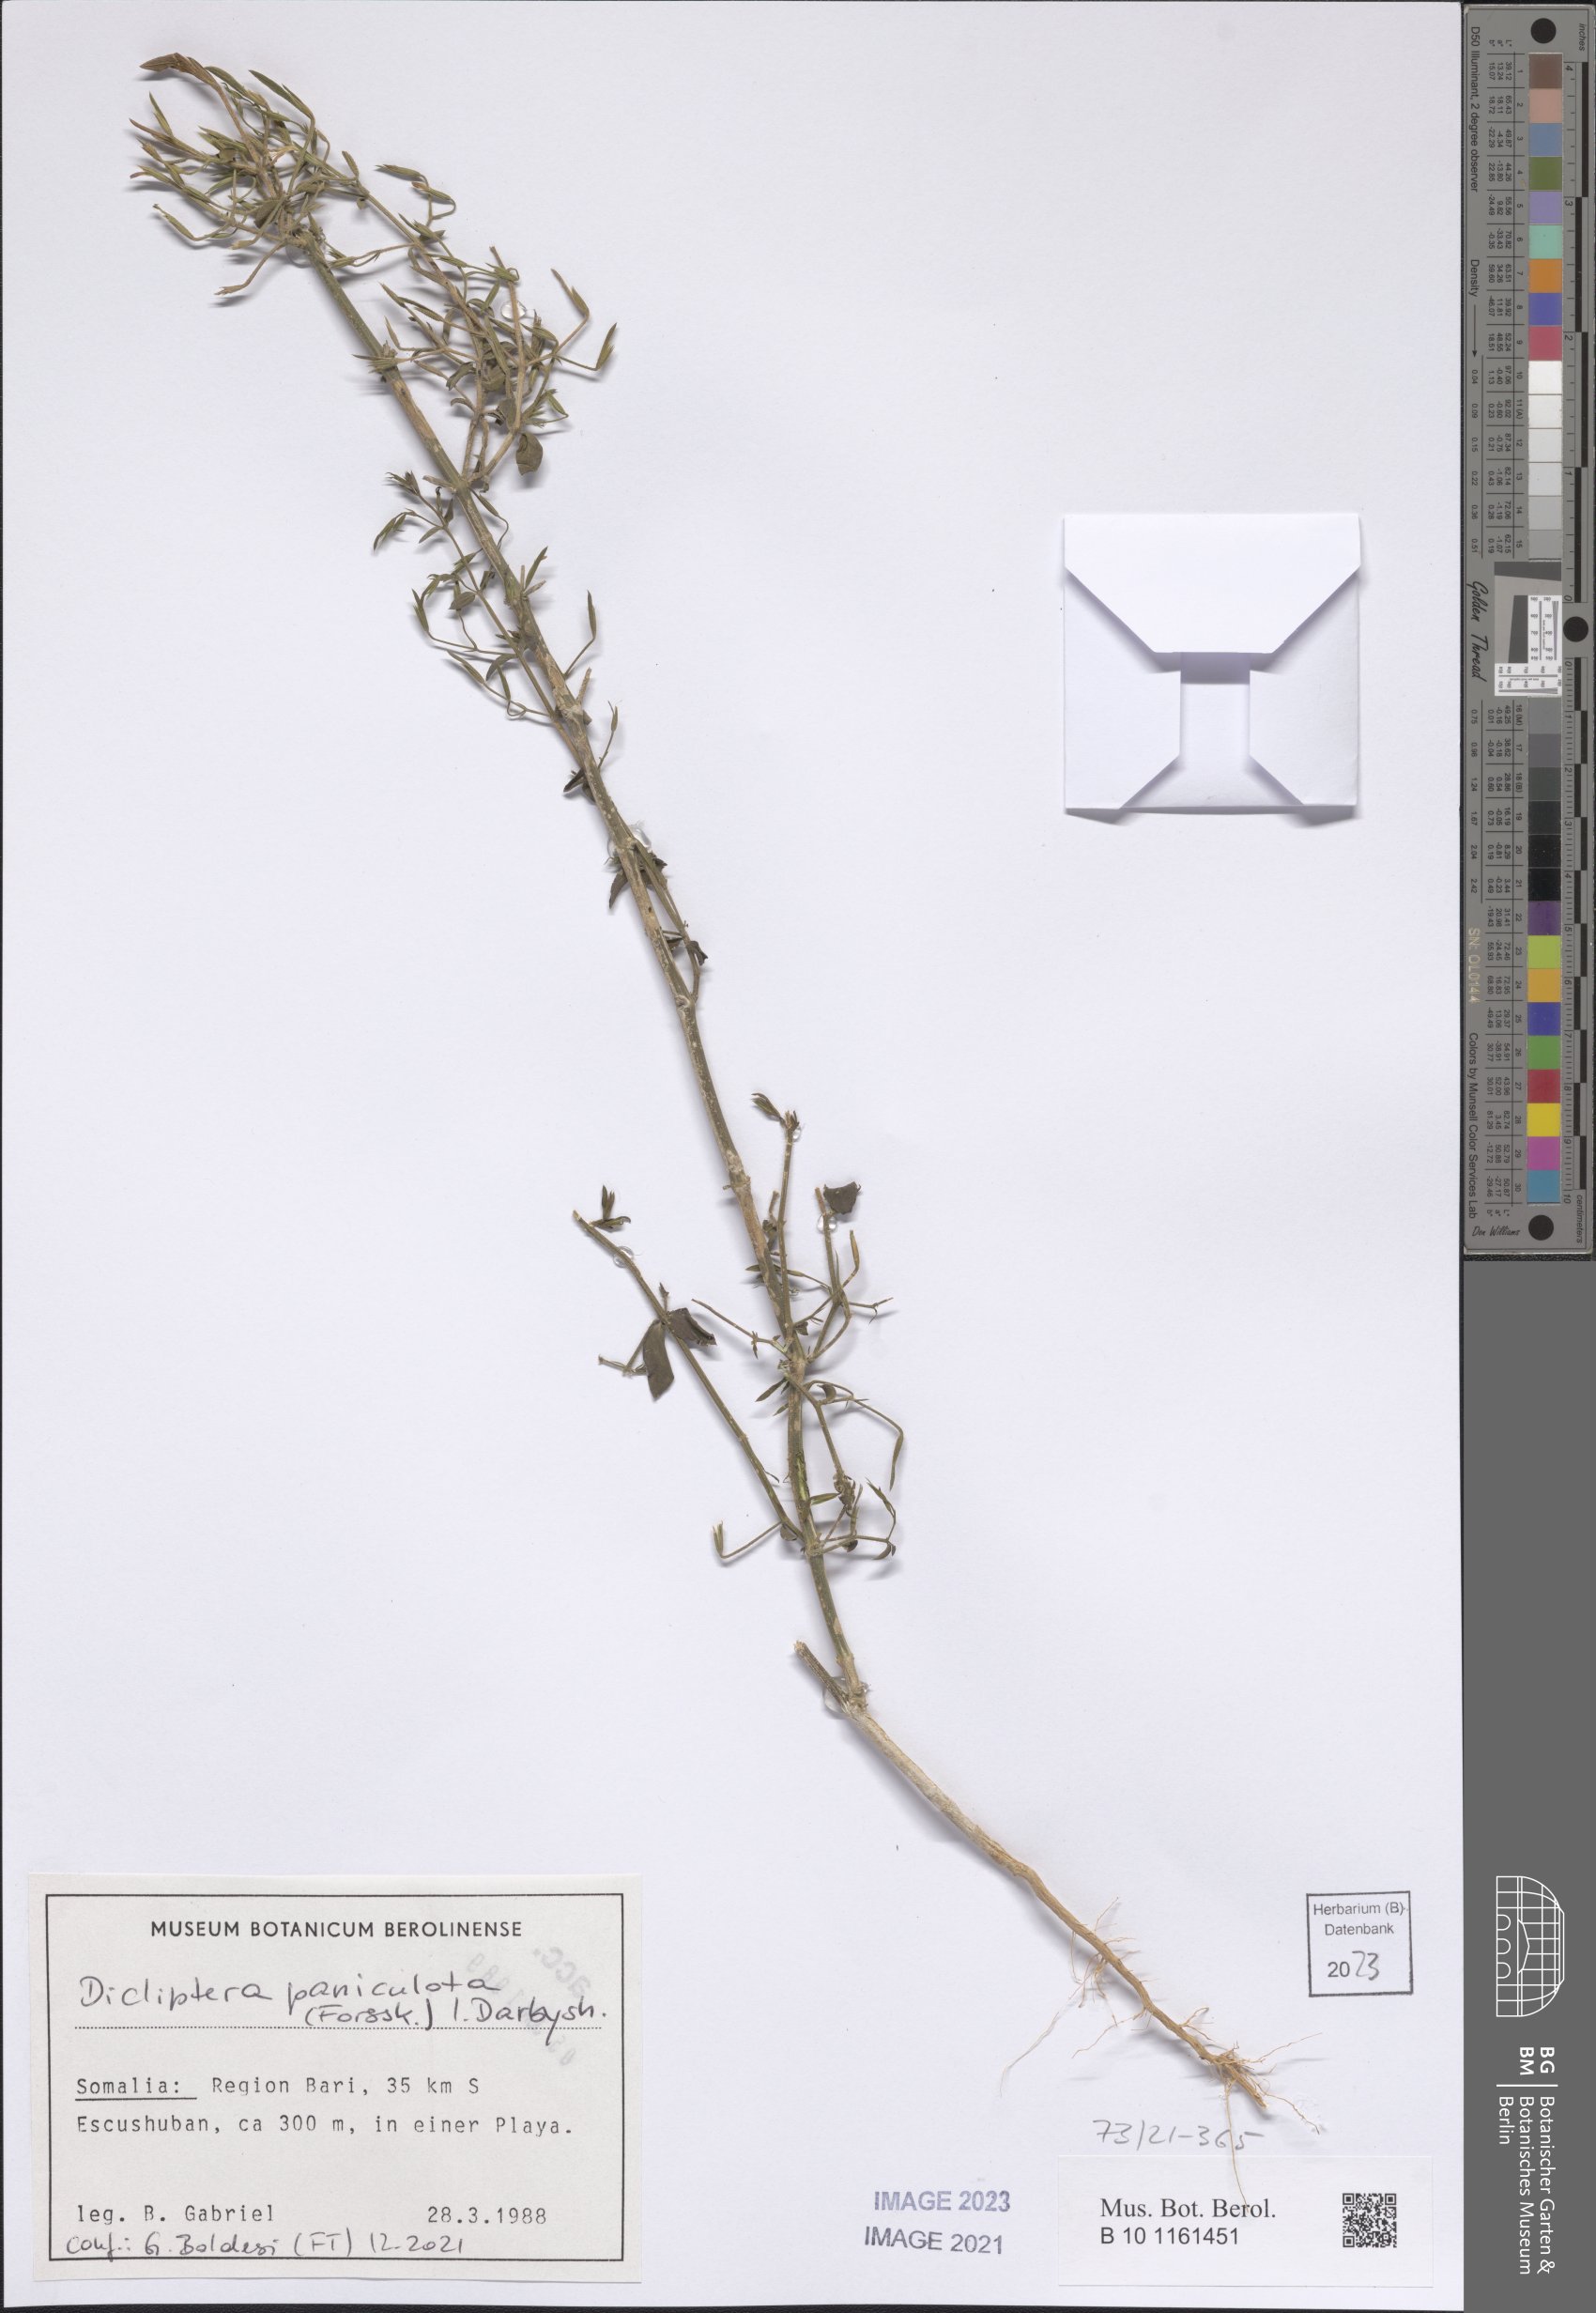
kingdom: Plantae
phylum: Tracheophyta
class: Magnoliopsida
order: Lamiales
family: Acanthaceae
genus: Dicliptera
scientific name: Dicliptera paniculata
